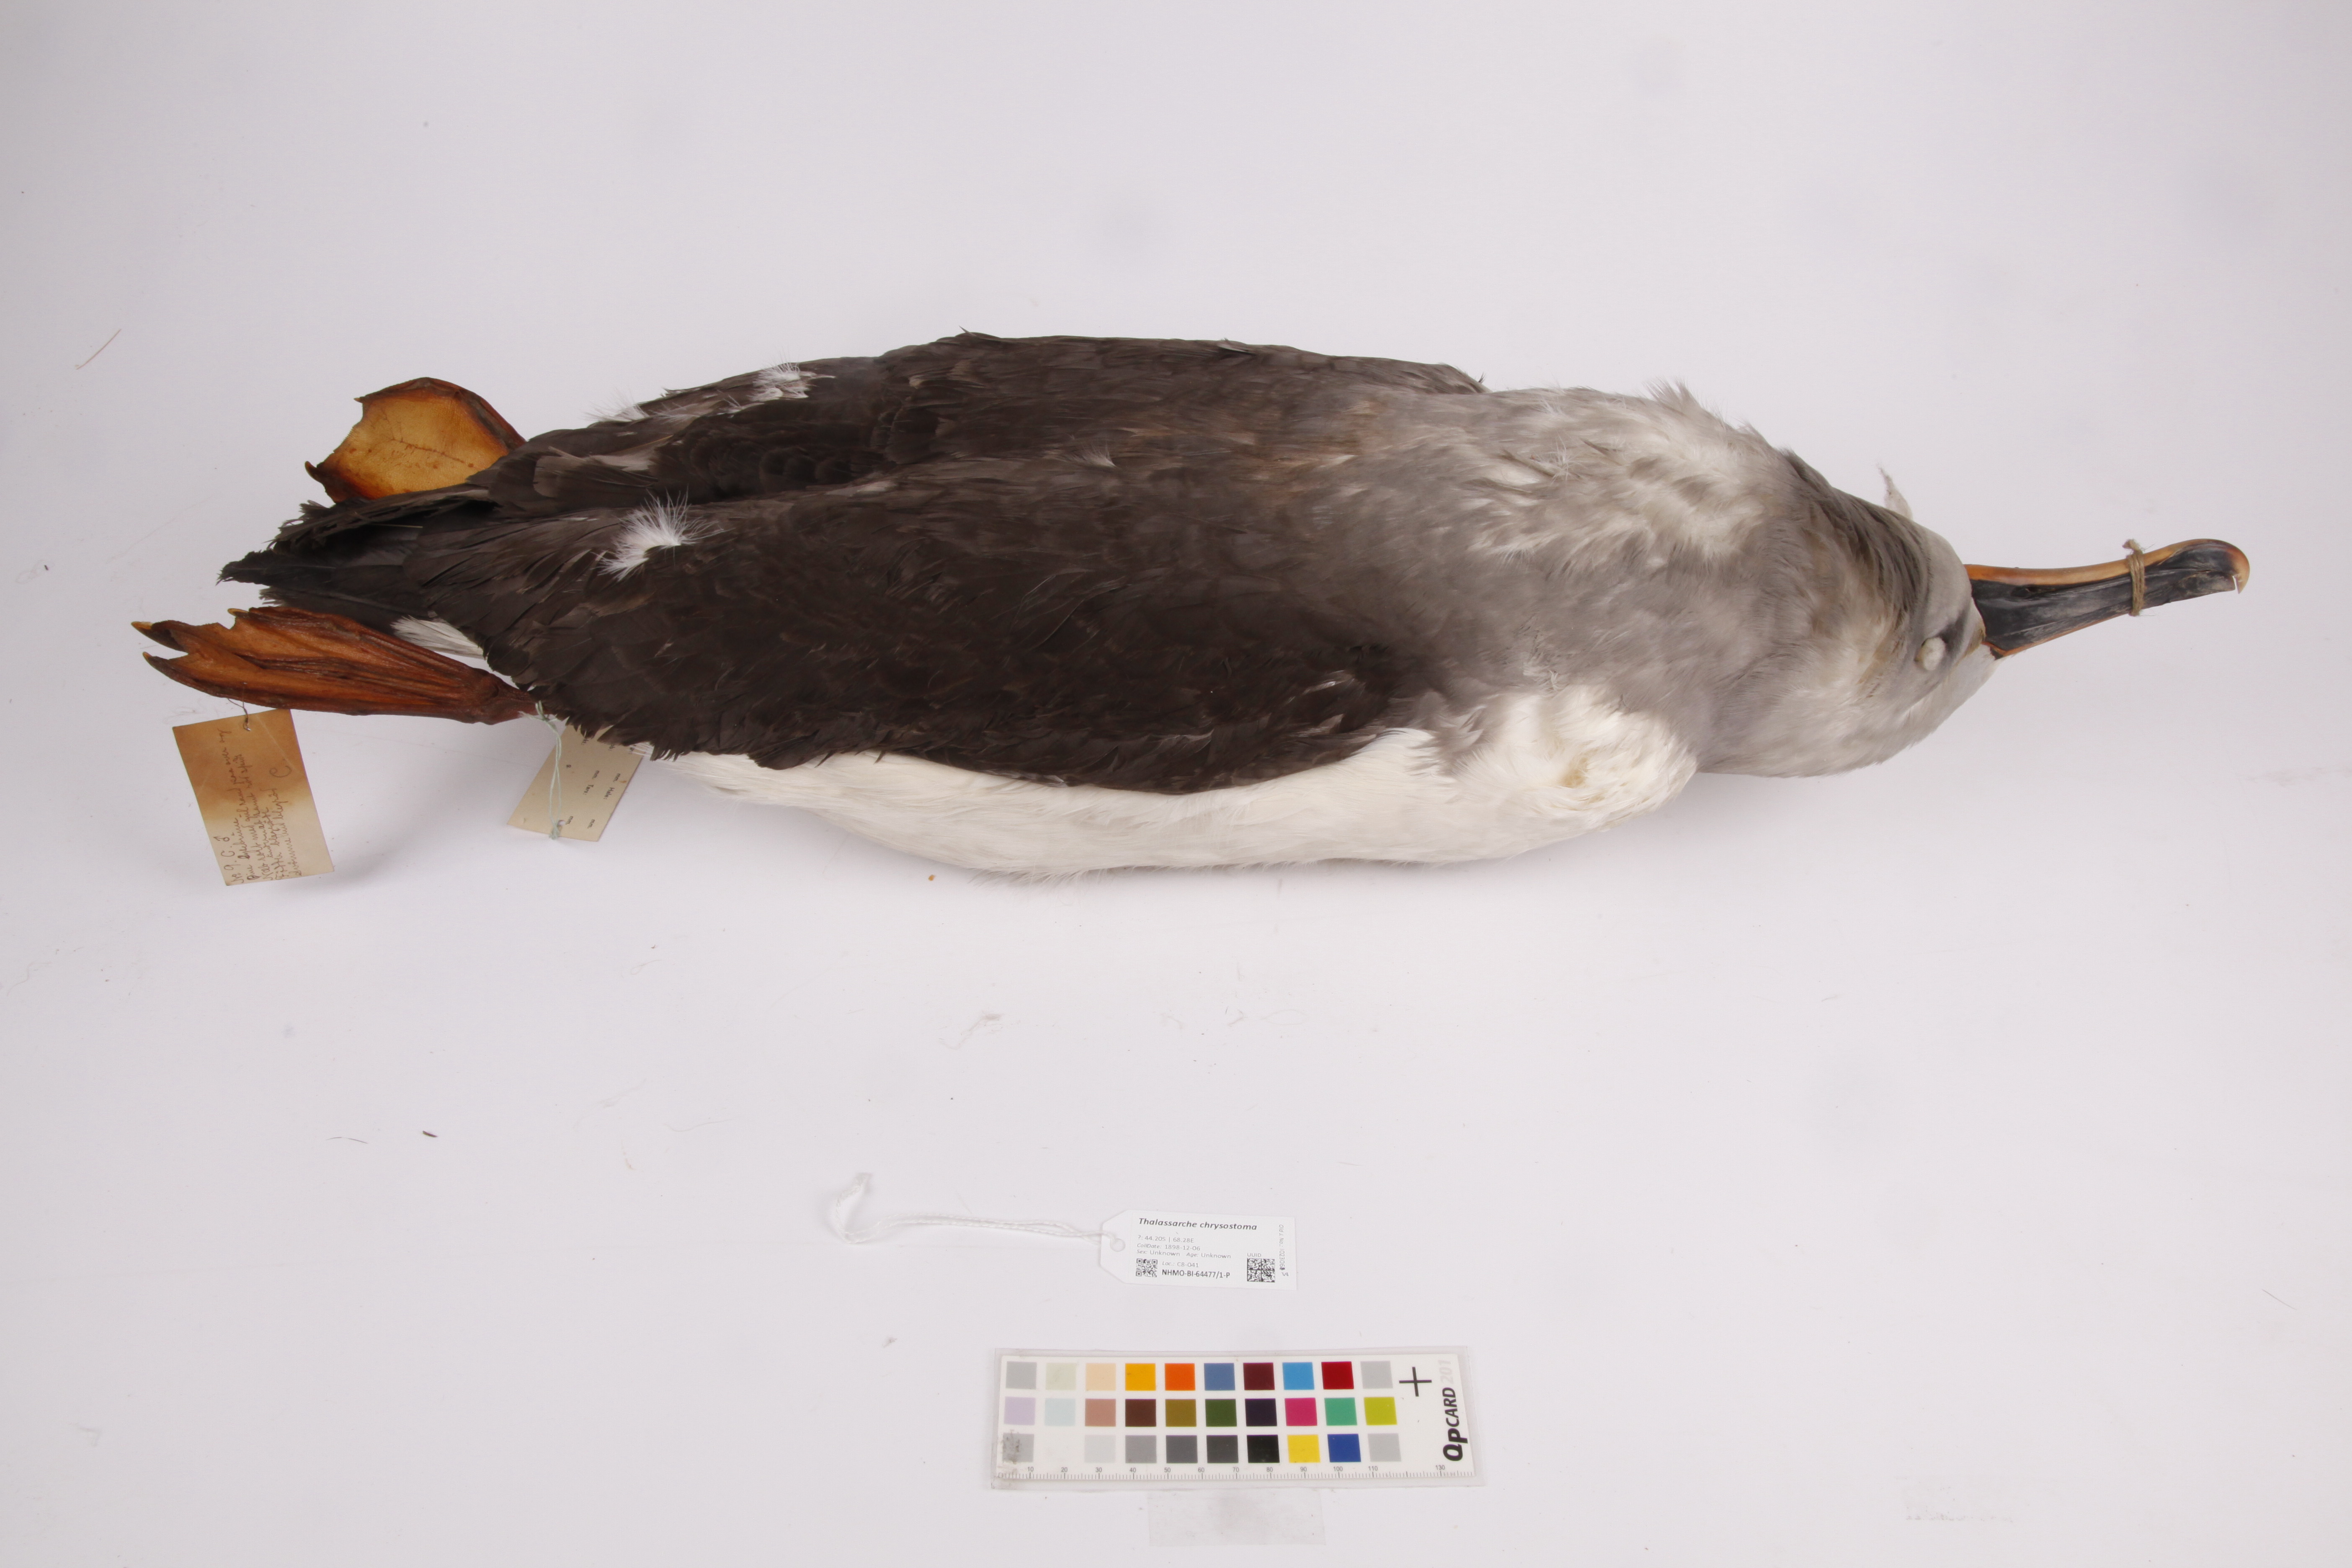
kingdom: Animalia
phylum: Chordata
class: Aves
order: Procellariiformes
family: Diomedeidae
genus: Thalassarche
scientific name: Thalassarche chrysostoma
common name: Grey-headed albatross
